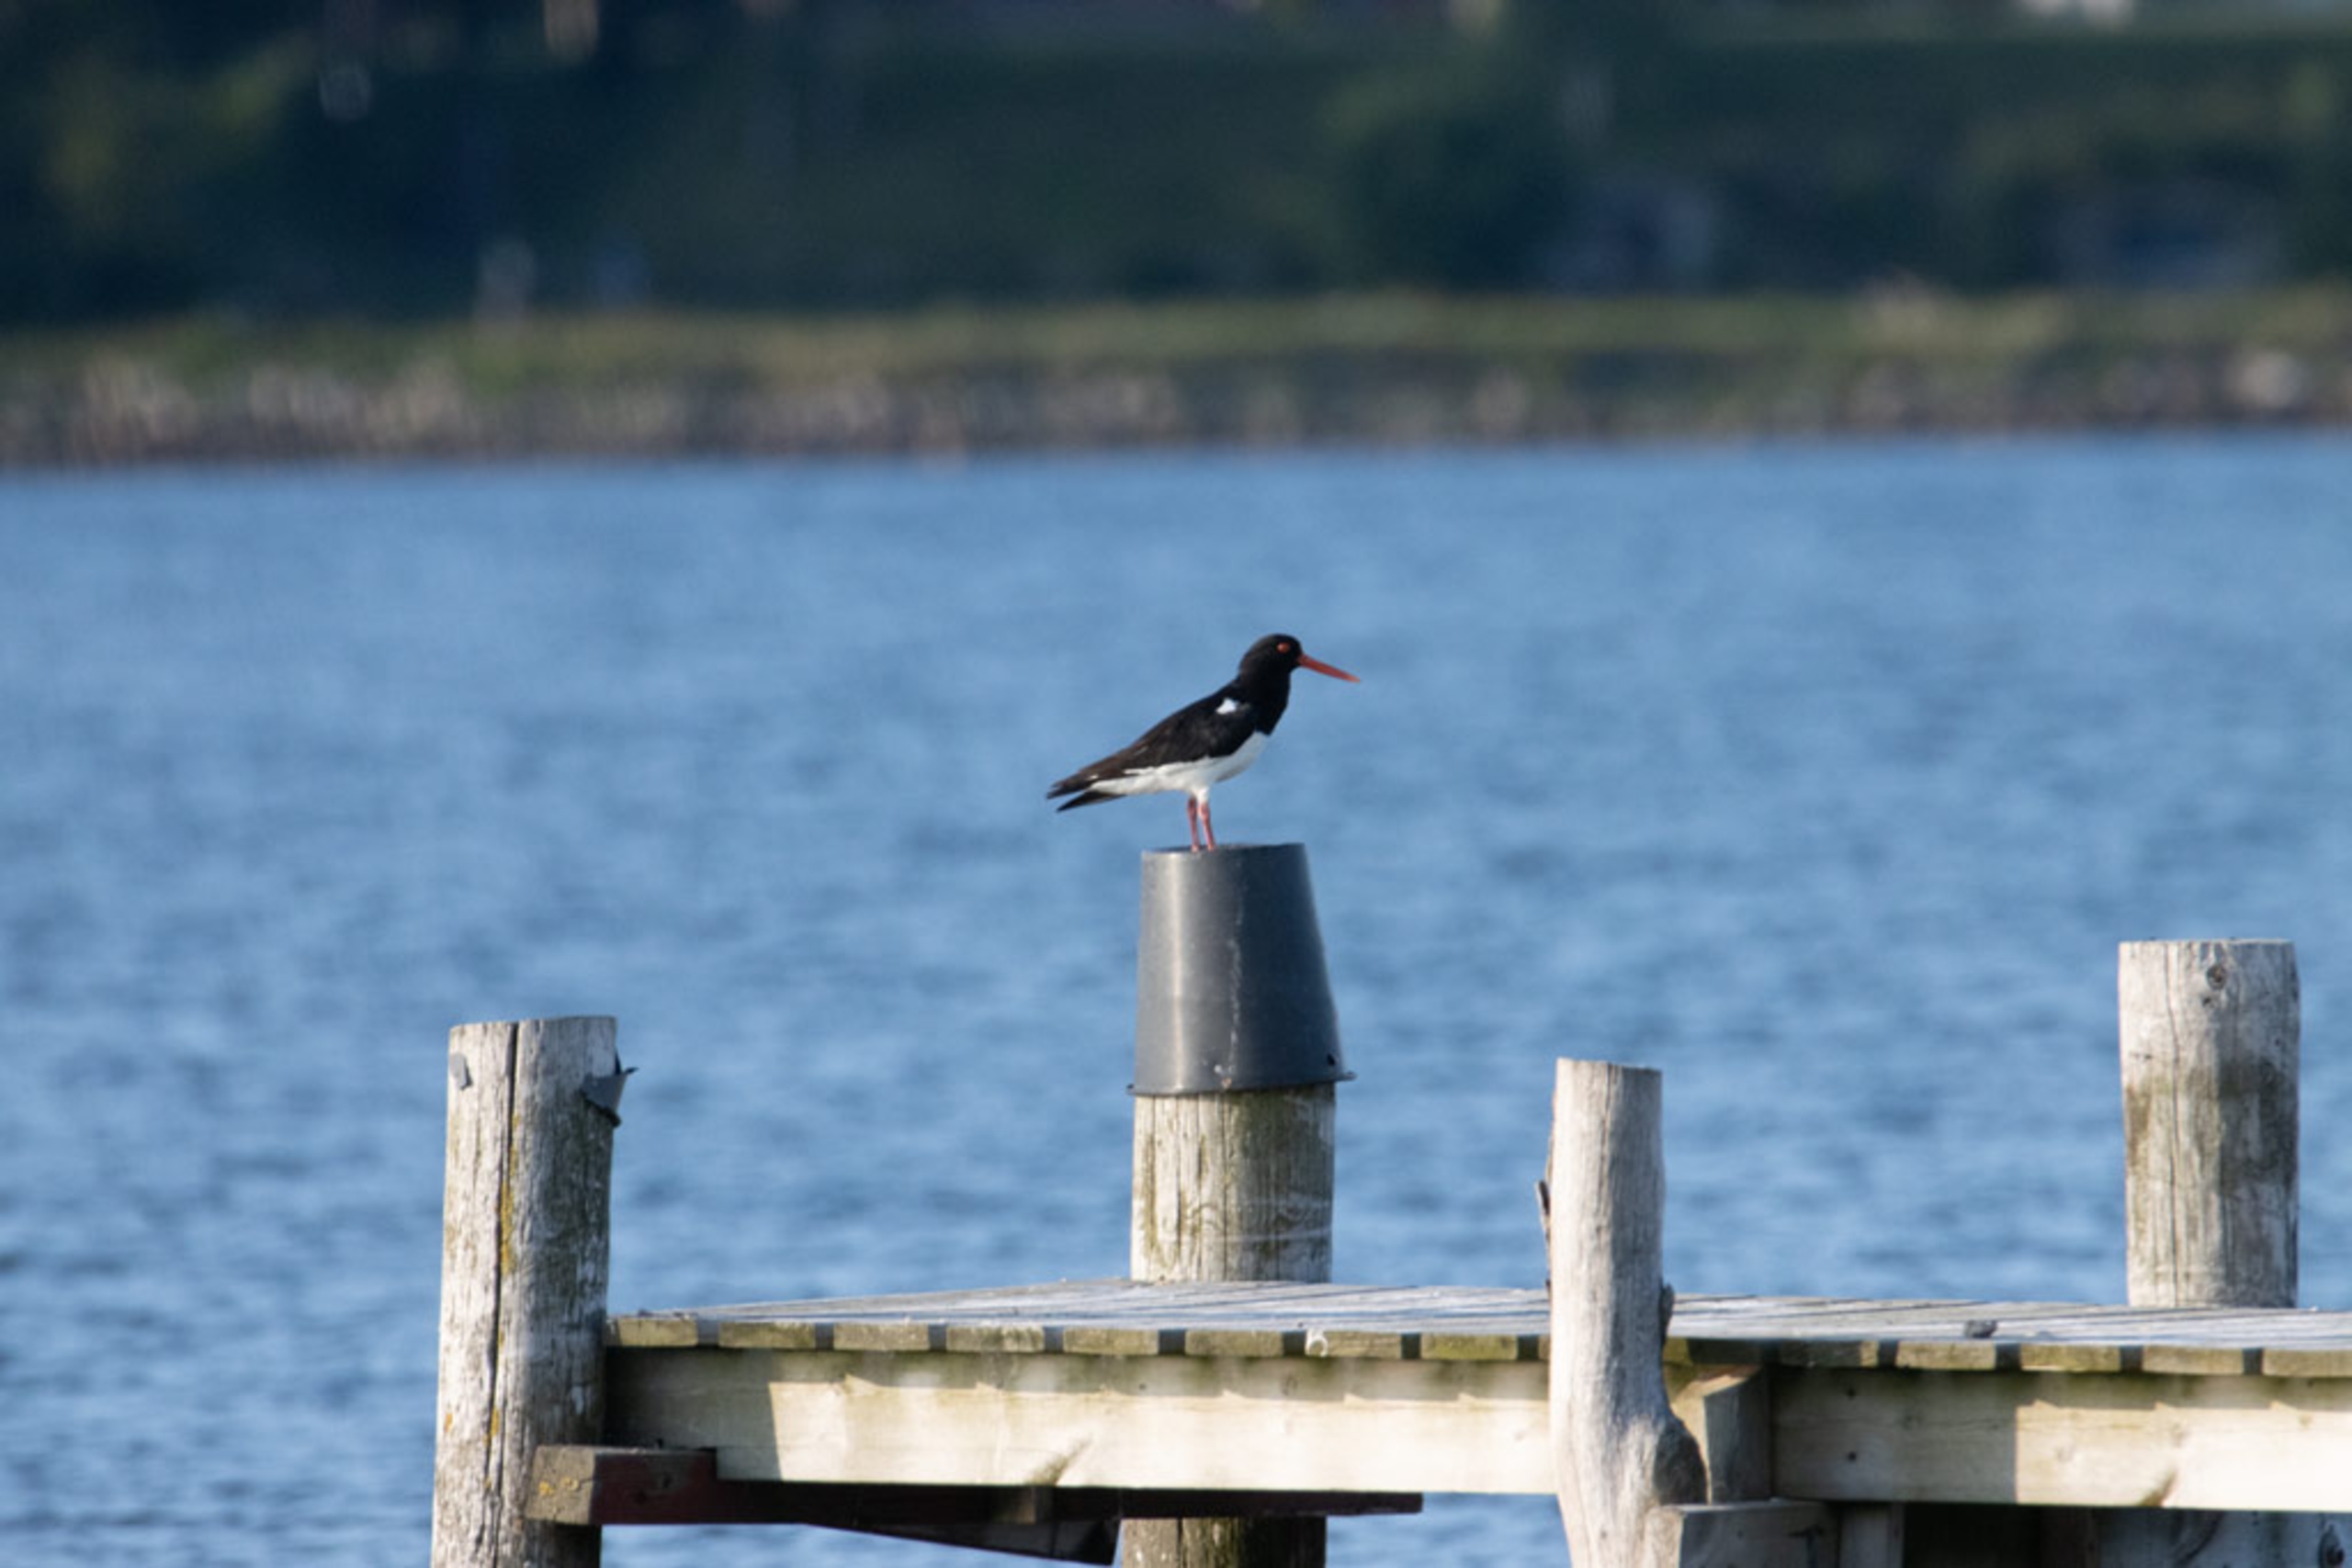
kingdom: Animalia
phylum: Chordata
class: Aves
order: Charadriiformes
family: Haematopodidae
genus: Haematopus
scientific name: Haematopus ostralegus
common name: Strandskade
